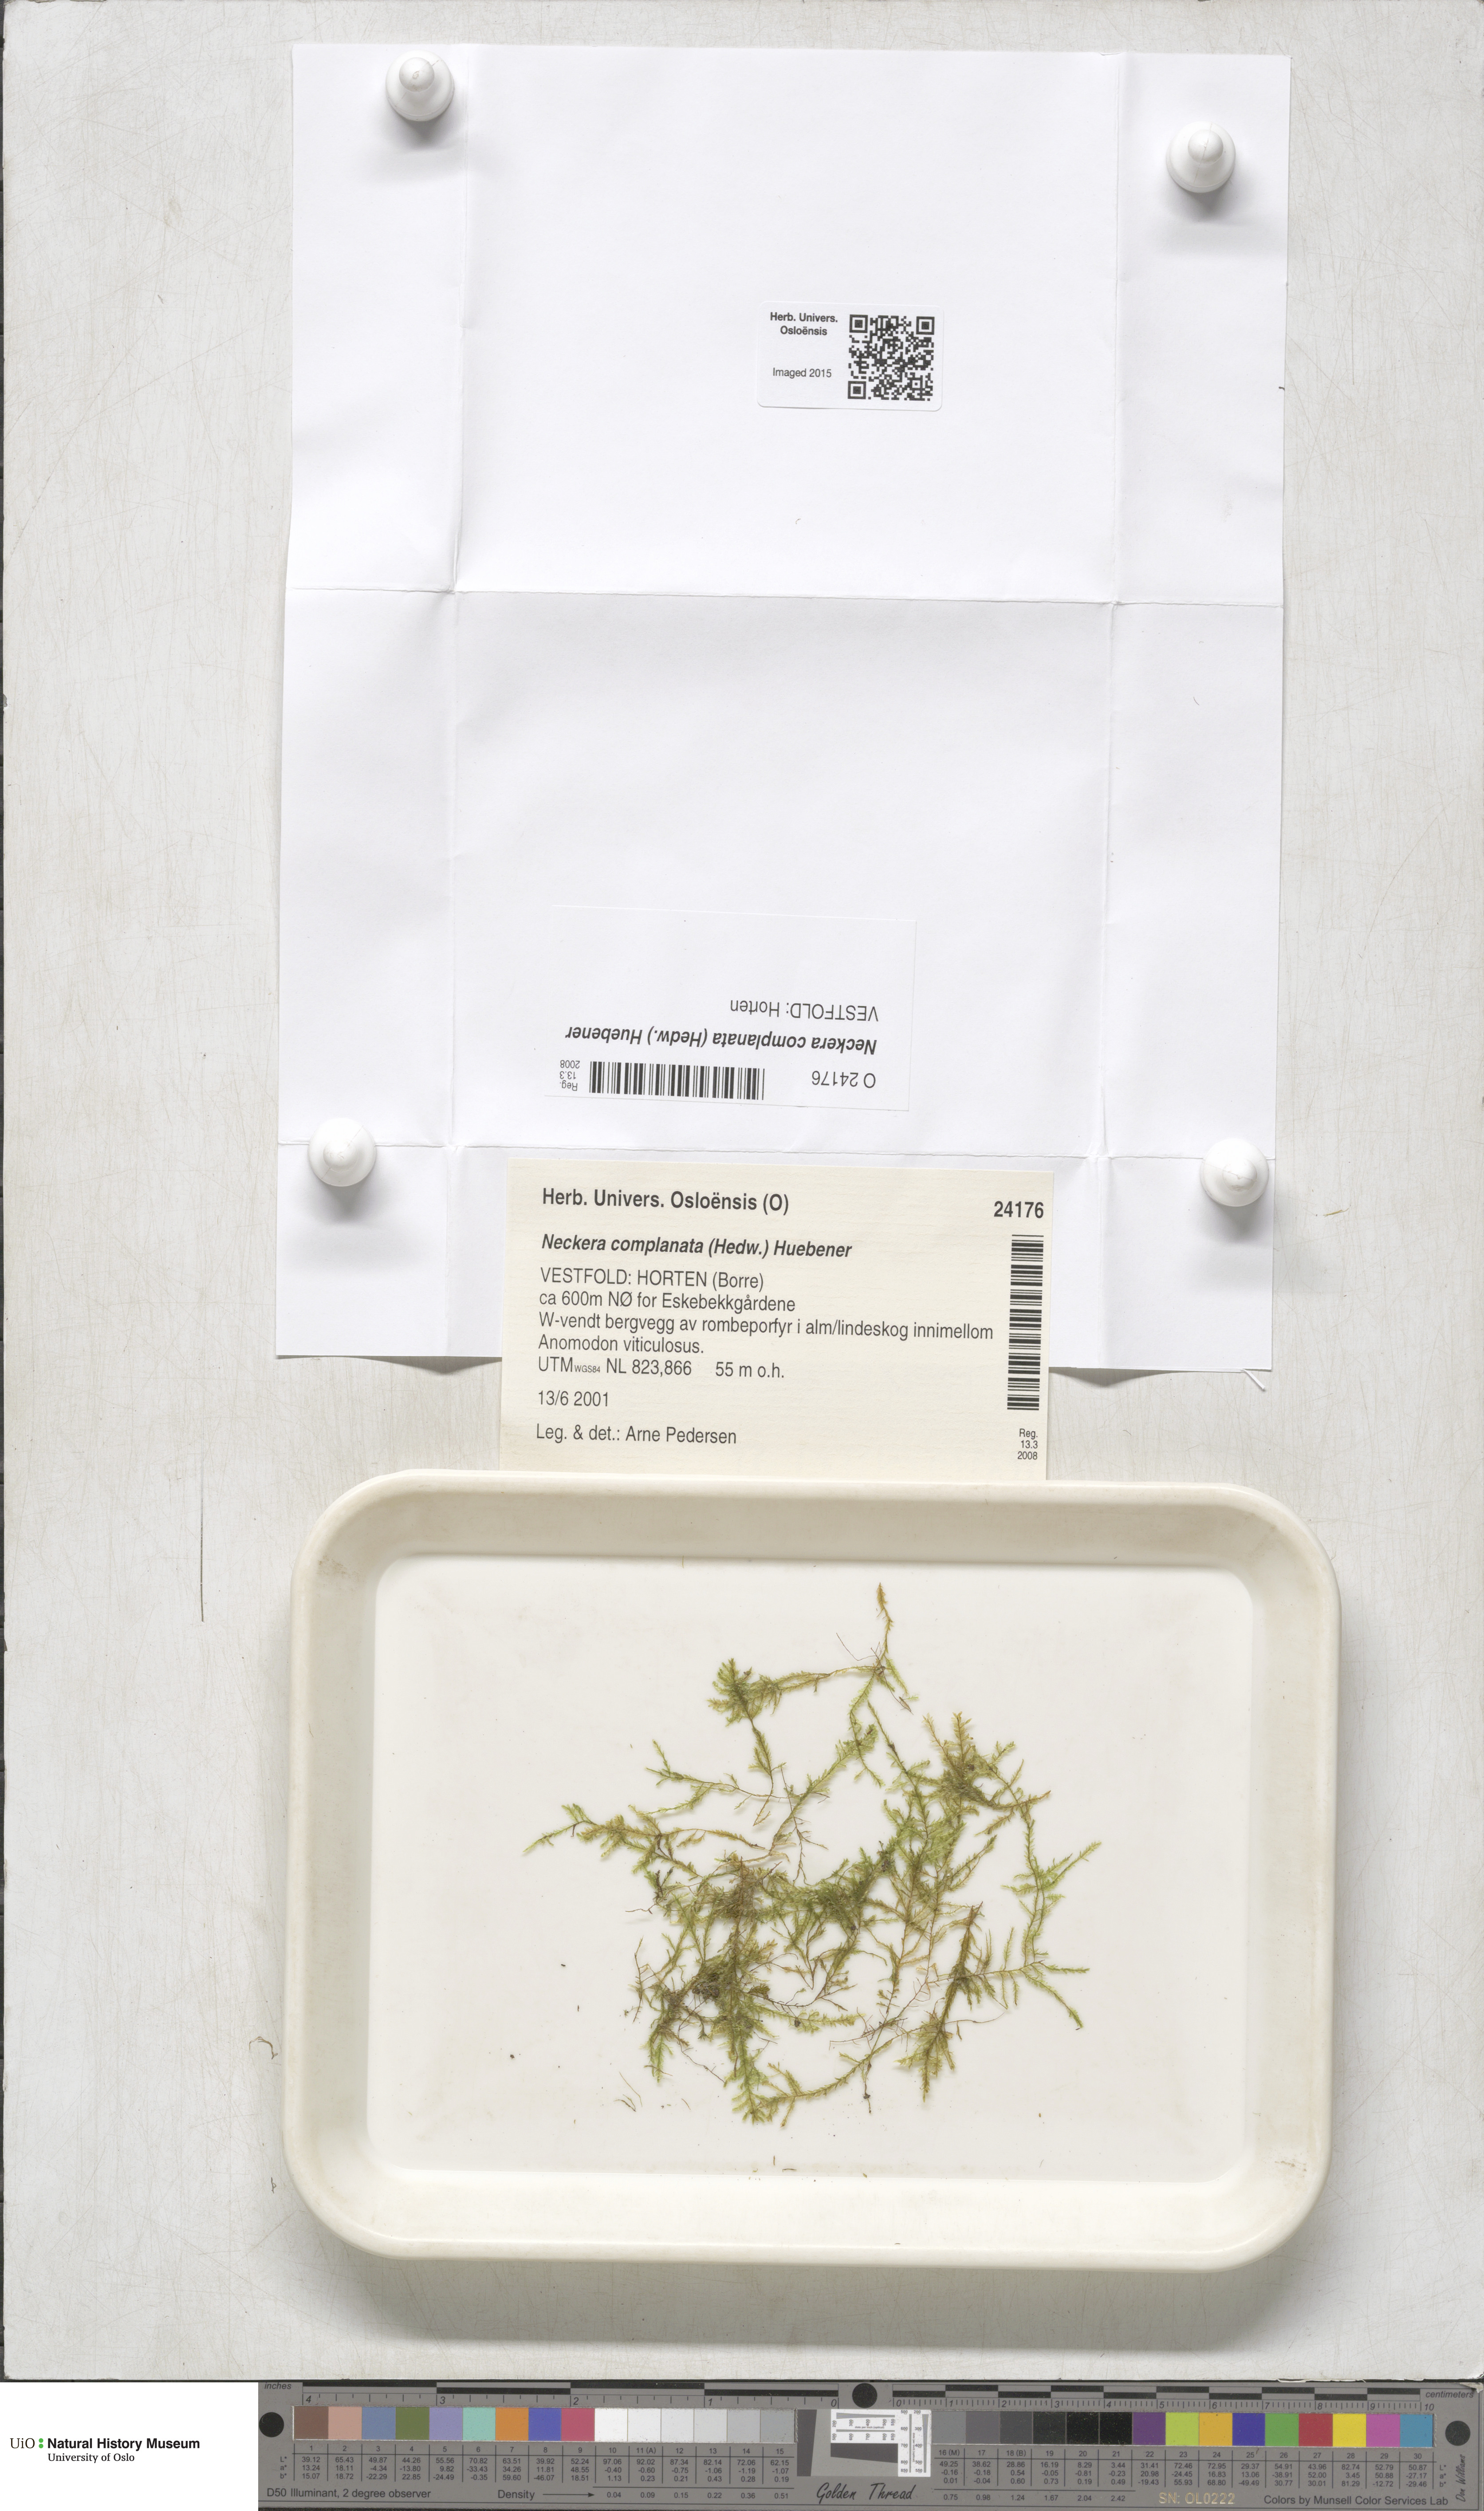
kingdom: Plantae
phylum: Bryophyta
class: Bryopsida
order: Hypnales
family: Neckeraceae
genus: Alleniella
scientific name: Alleniella complanata
